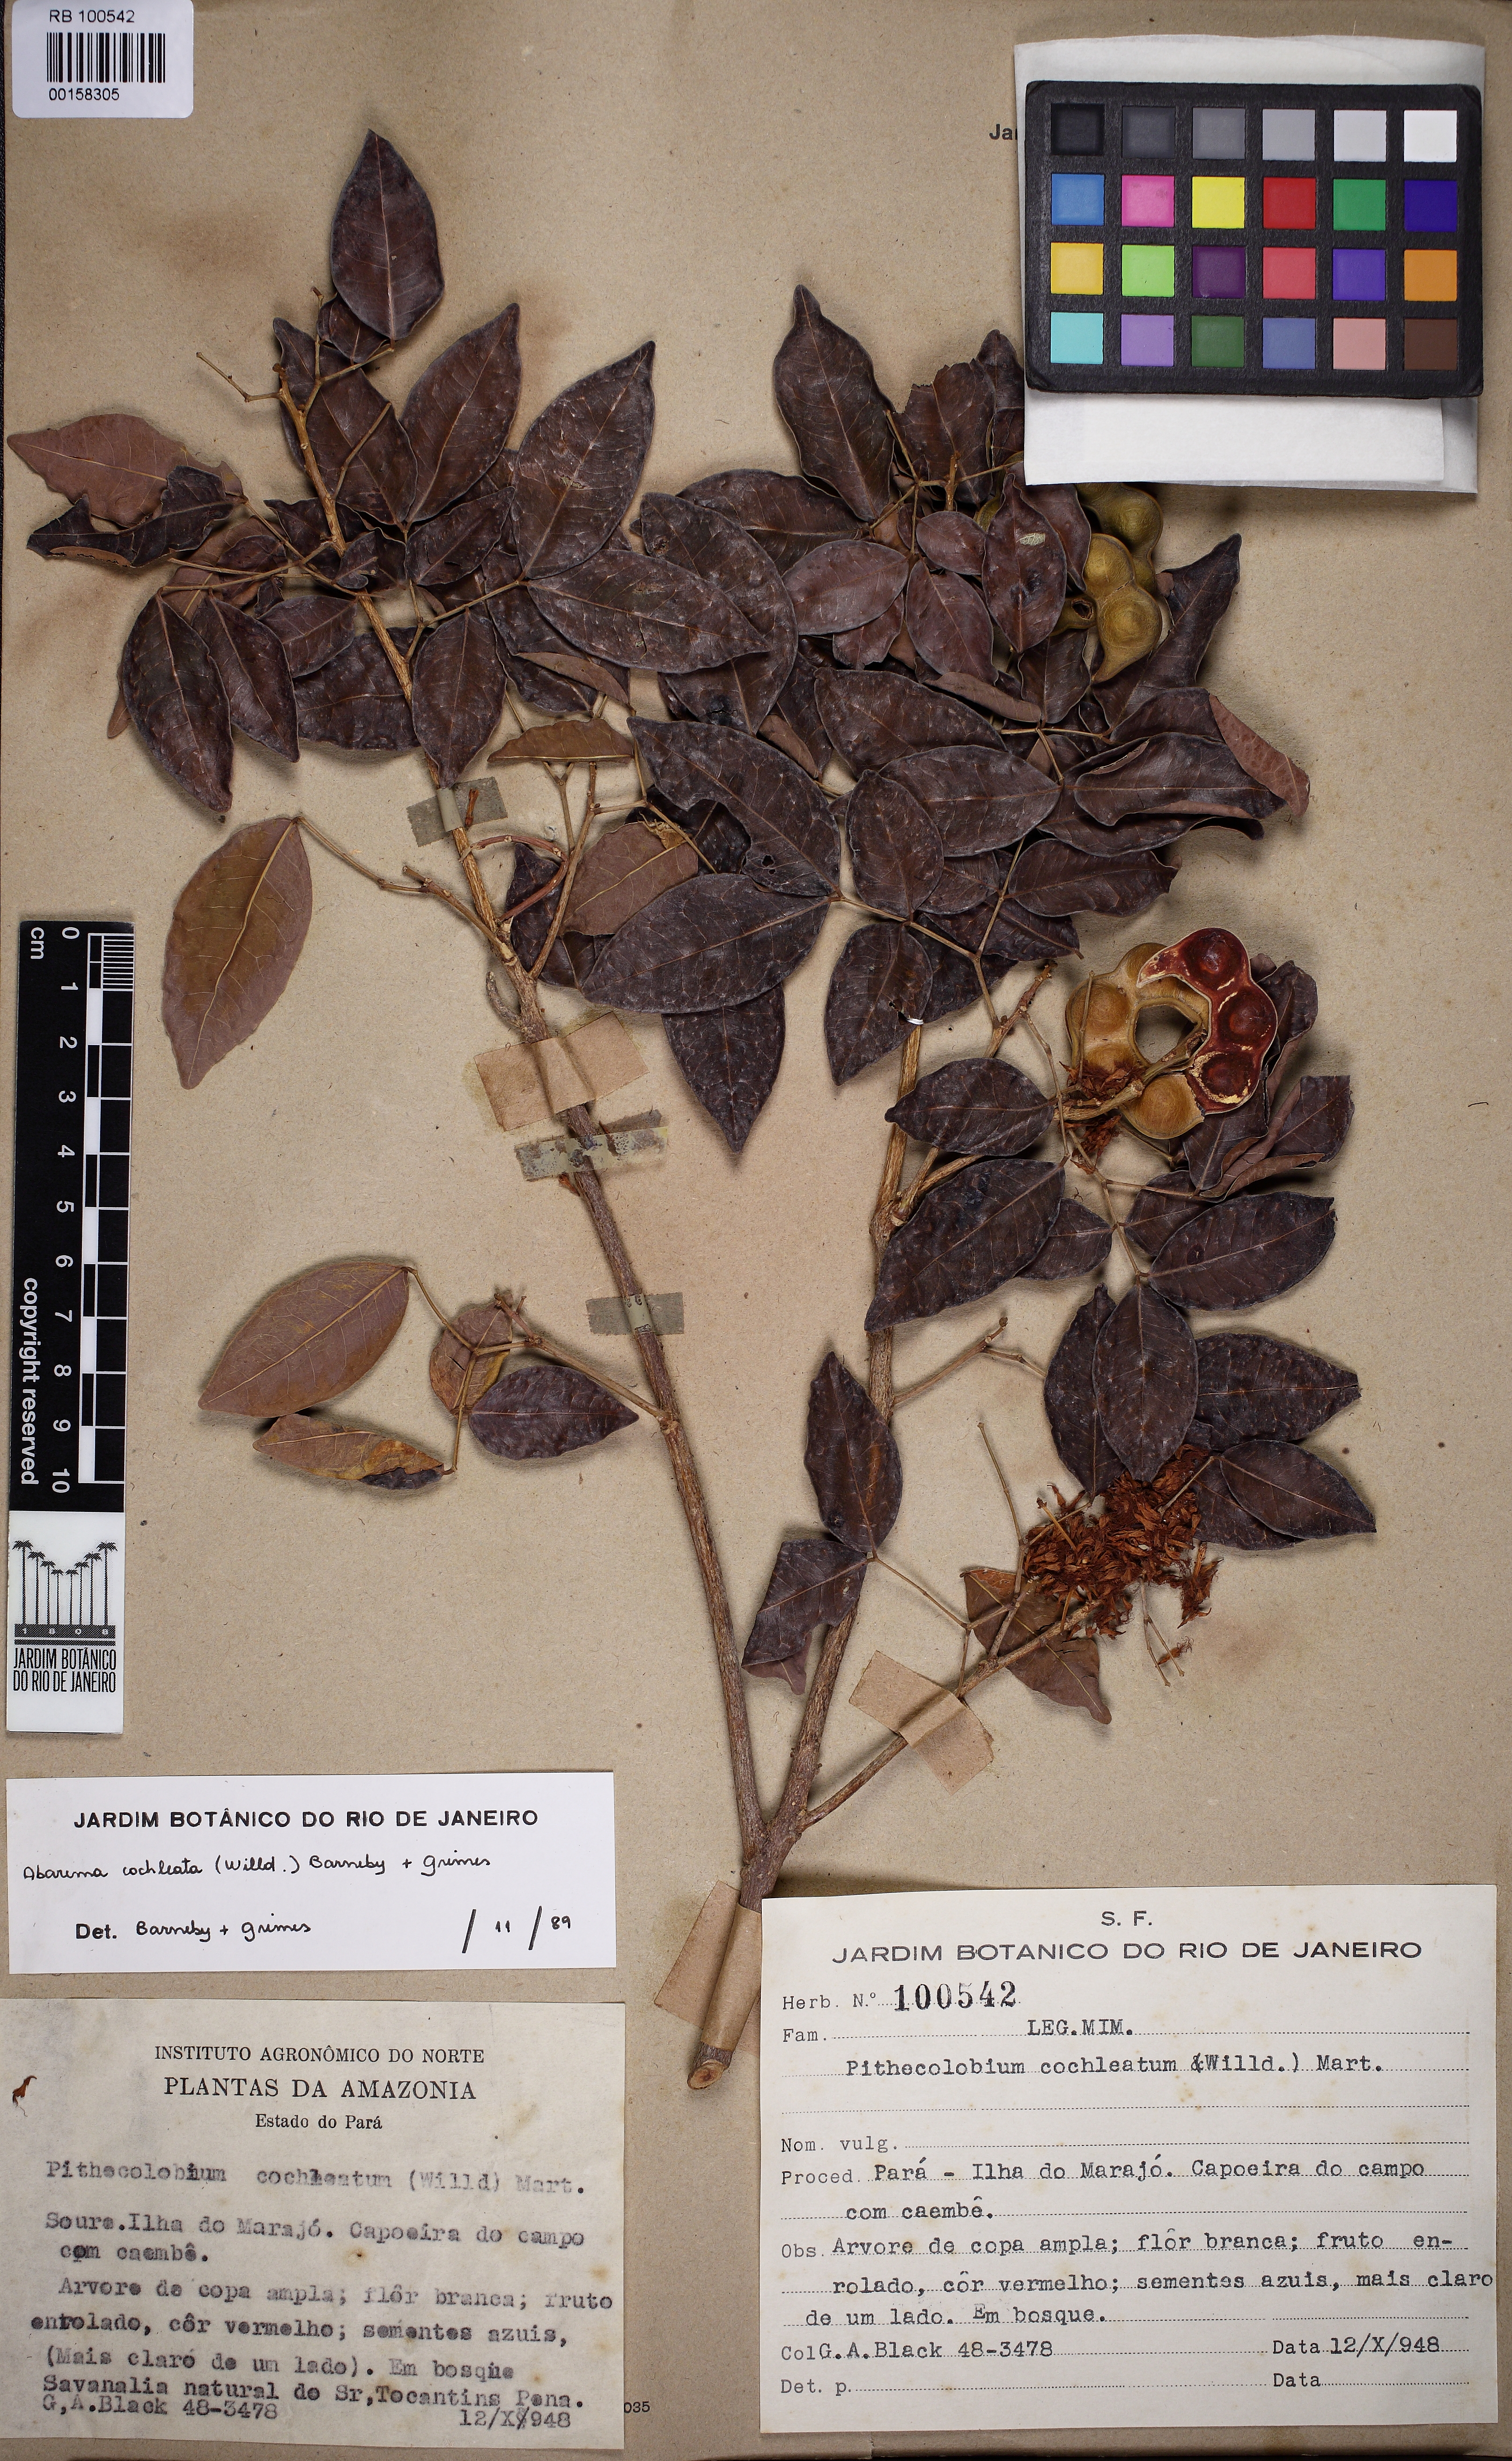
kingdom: Plantae
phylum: Tracheophyta
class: Magnoliopsida
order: Fabales
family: Fabaceae
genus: Jupunba
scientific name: Jupunba cochleata
